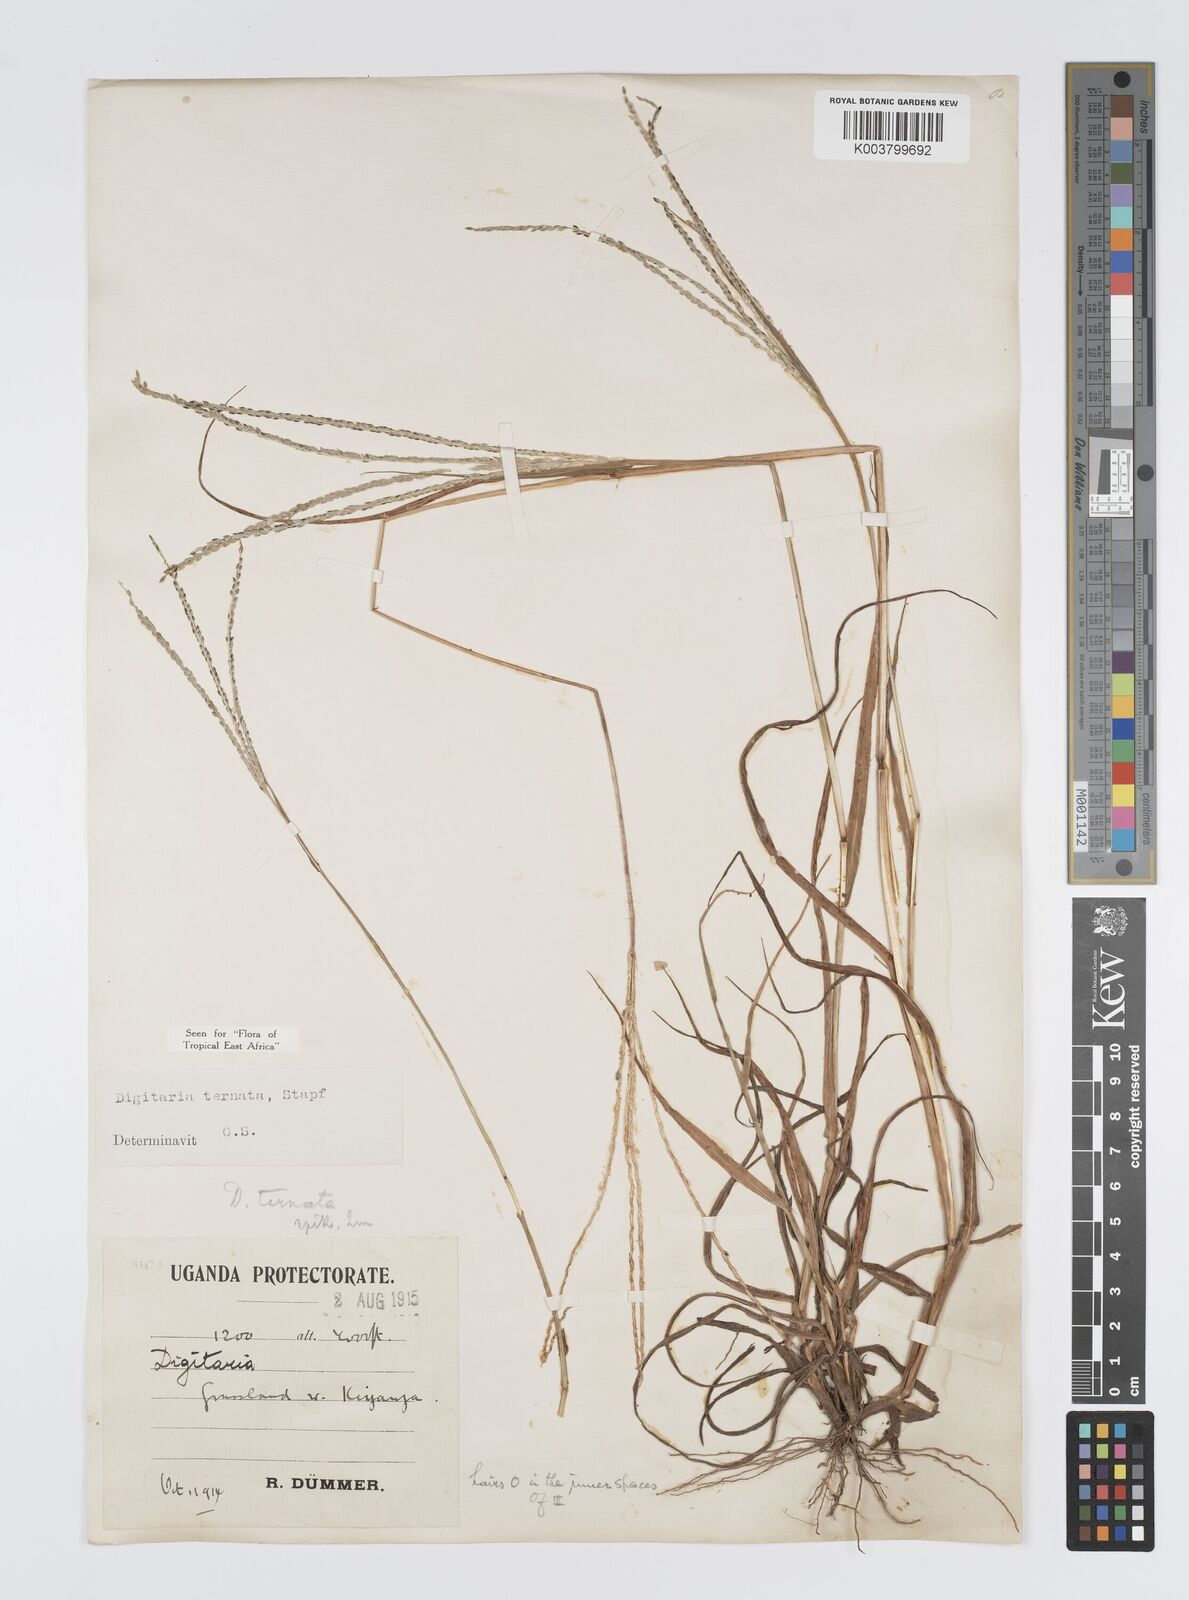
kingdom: Plantae
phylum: Tracheophyta
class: Liliopsida
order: Poales
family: Poaceae
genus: Digitaria
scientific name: Digitaria ternata
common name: Blackseed crabgrass
